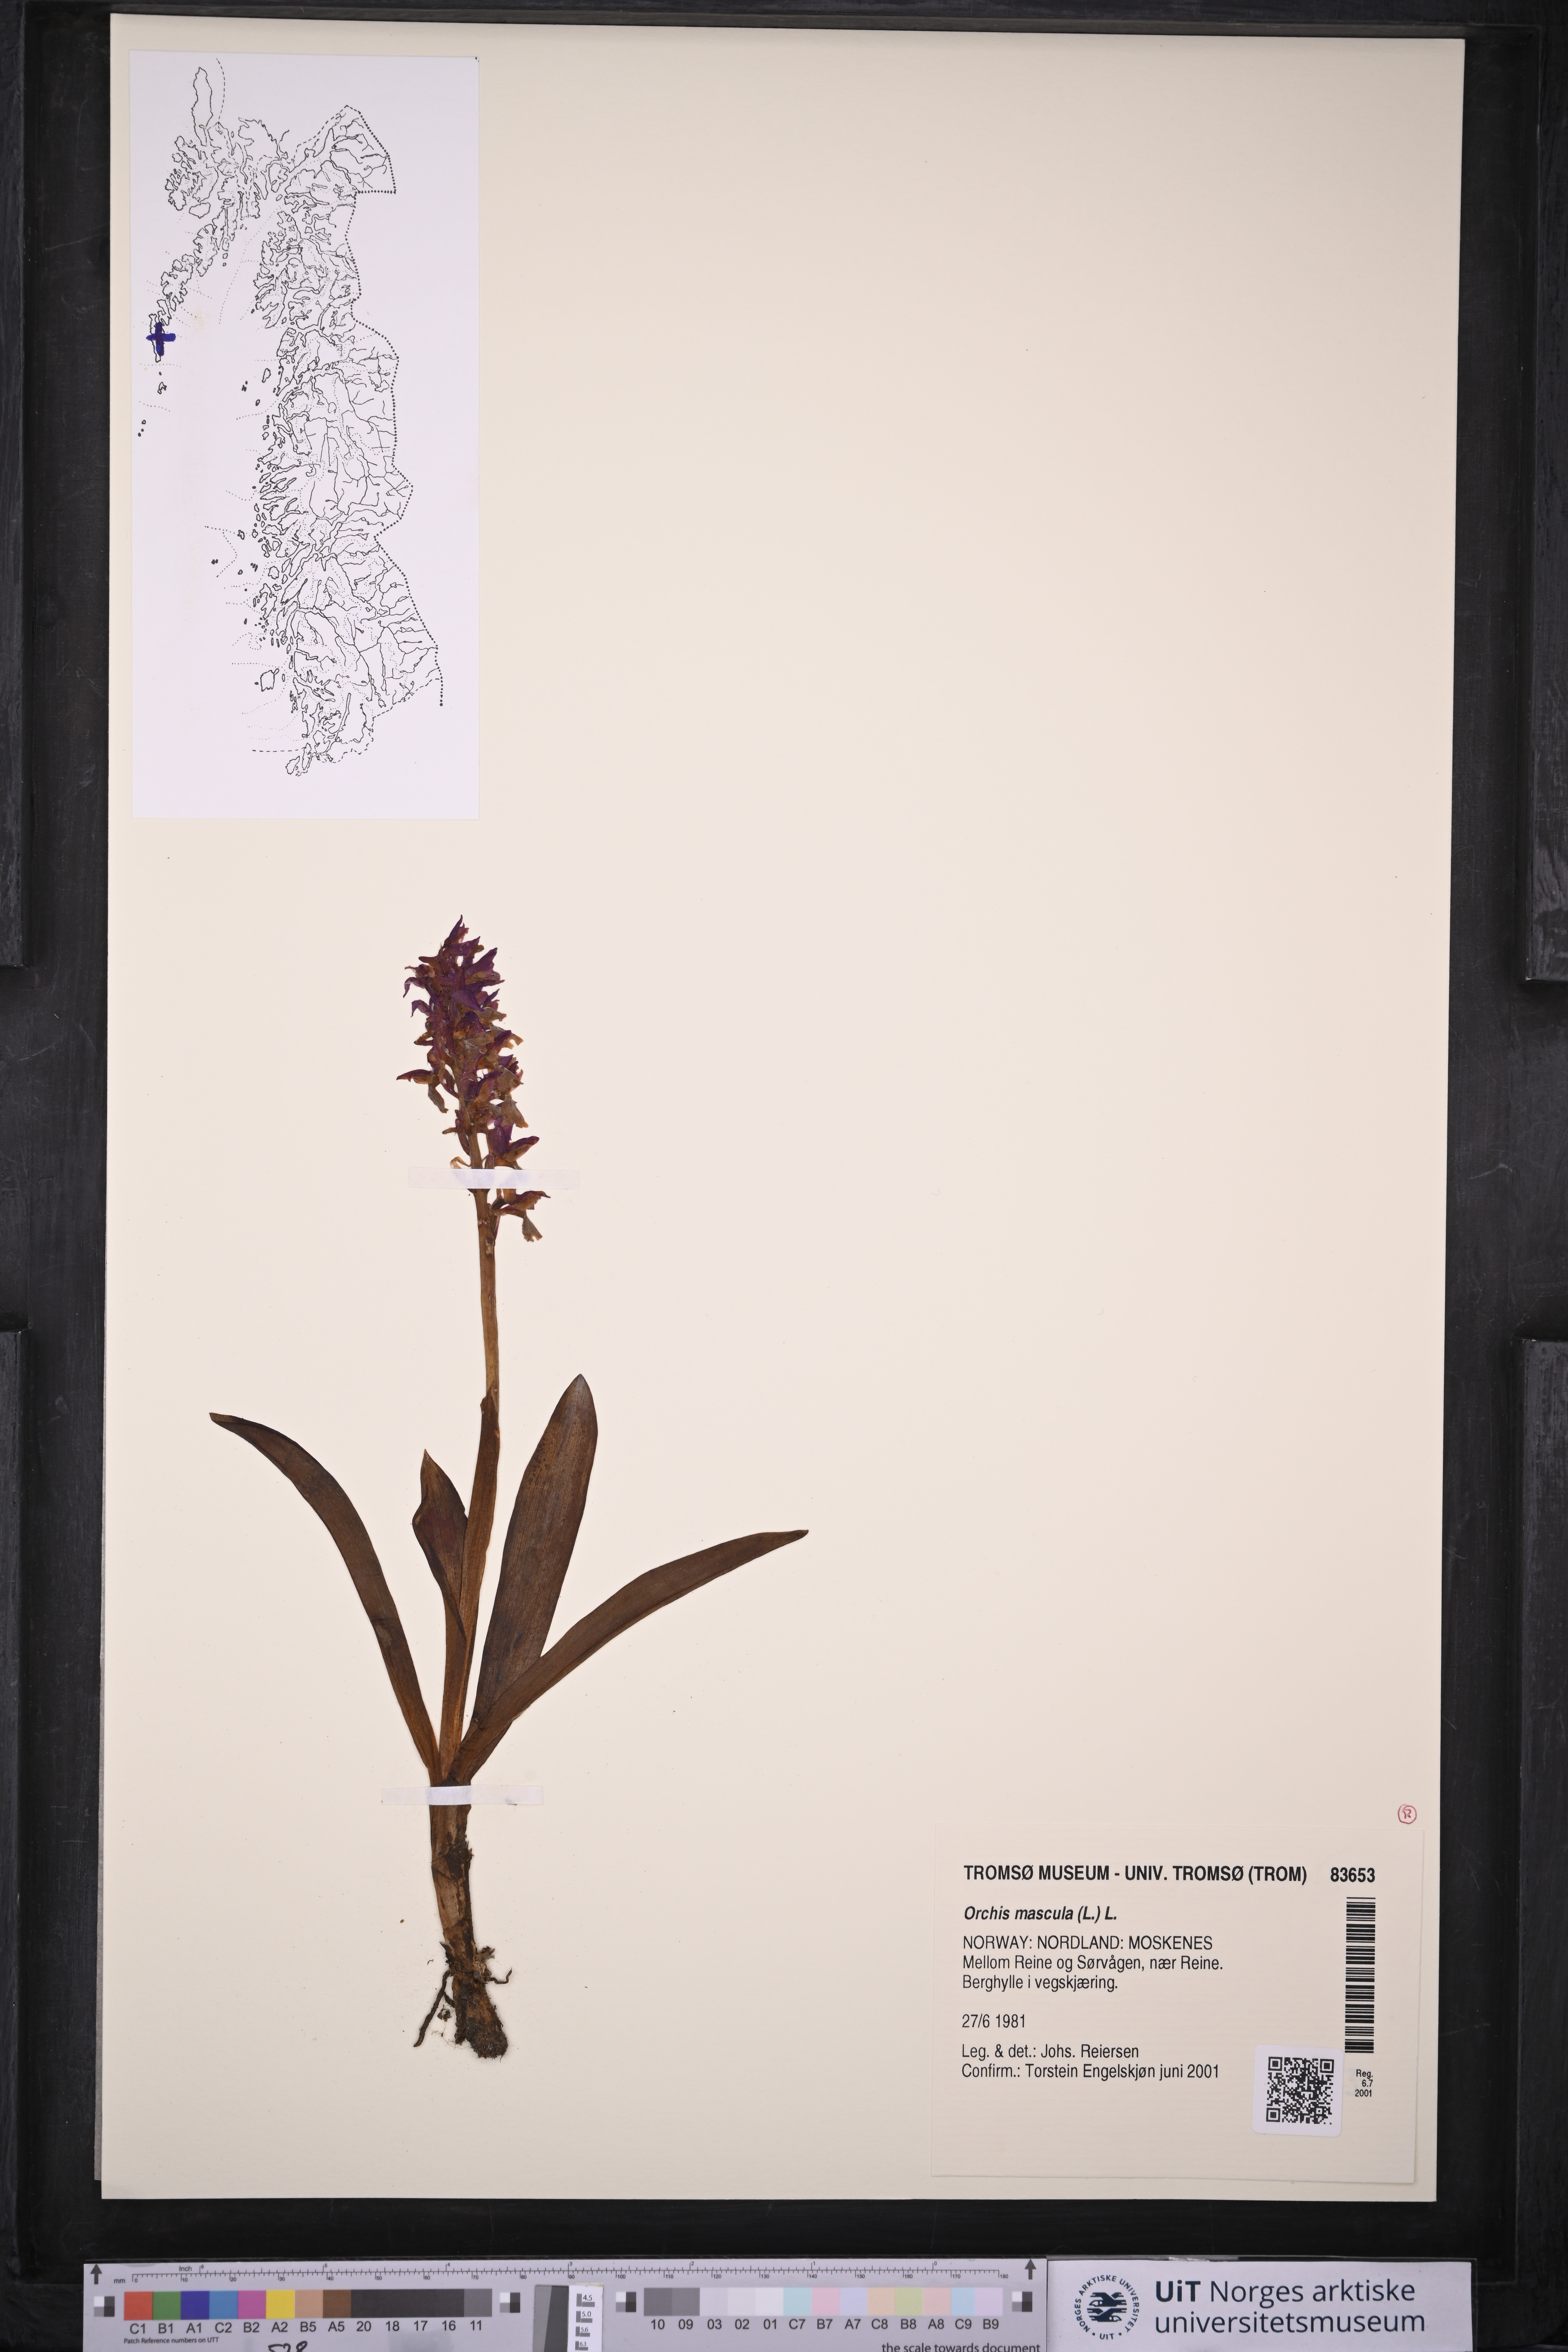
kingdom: Plantae
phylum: Tracheophyta
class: Liliopsida
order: Asparagales
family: Orchidaceae
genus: Orchis
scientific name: Orchis mascula
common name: Early-purple orchid
